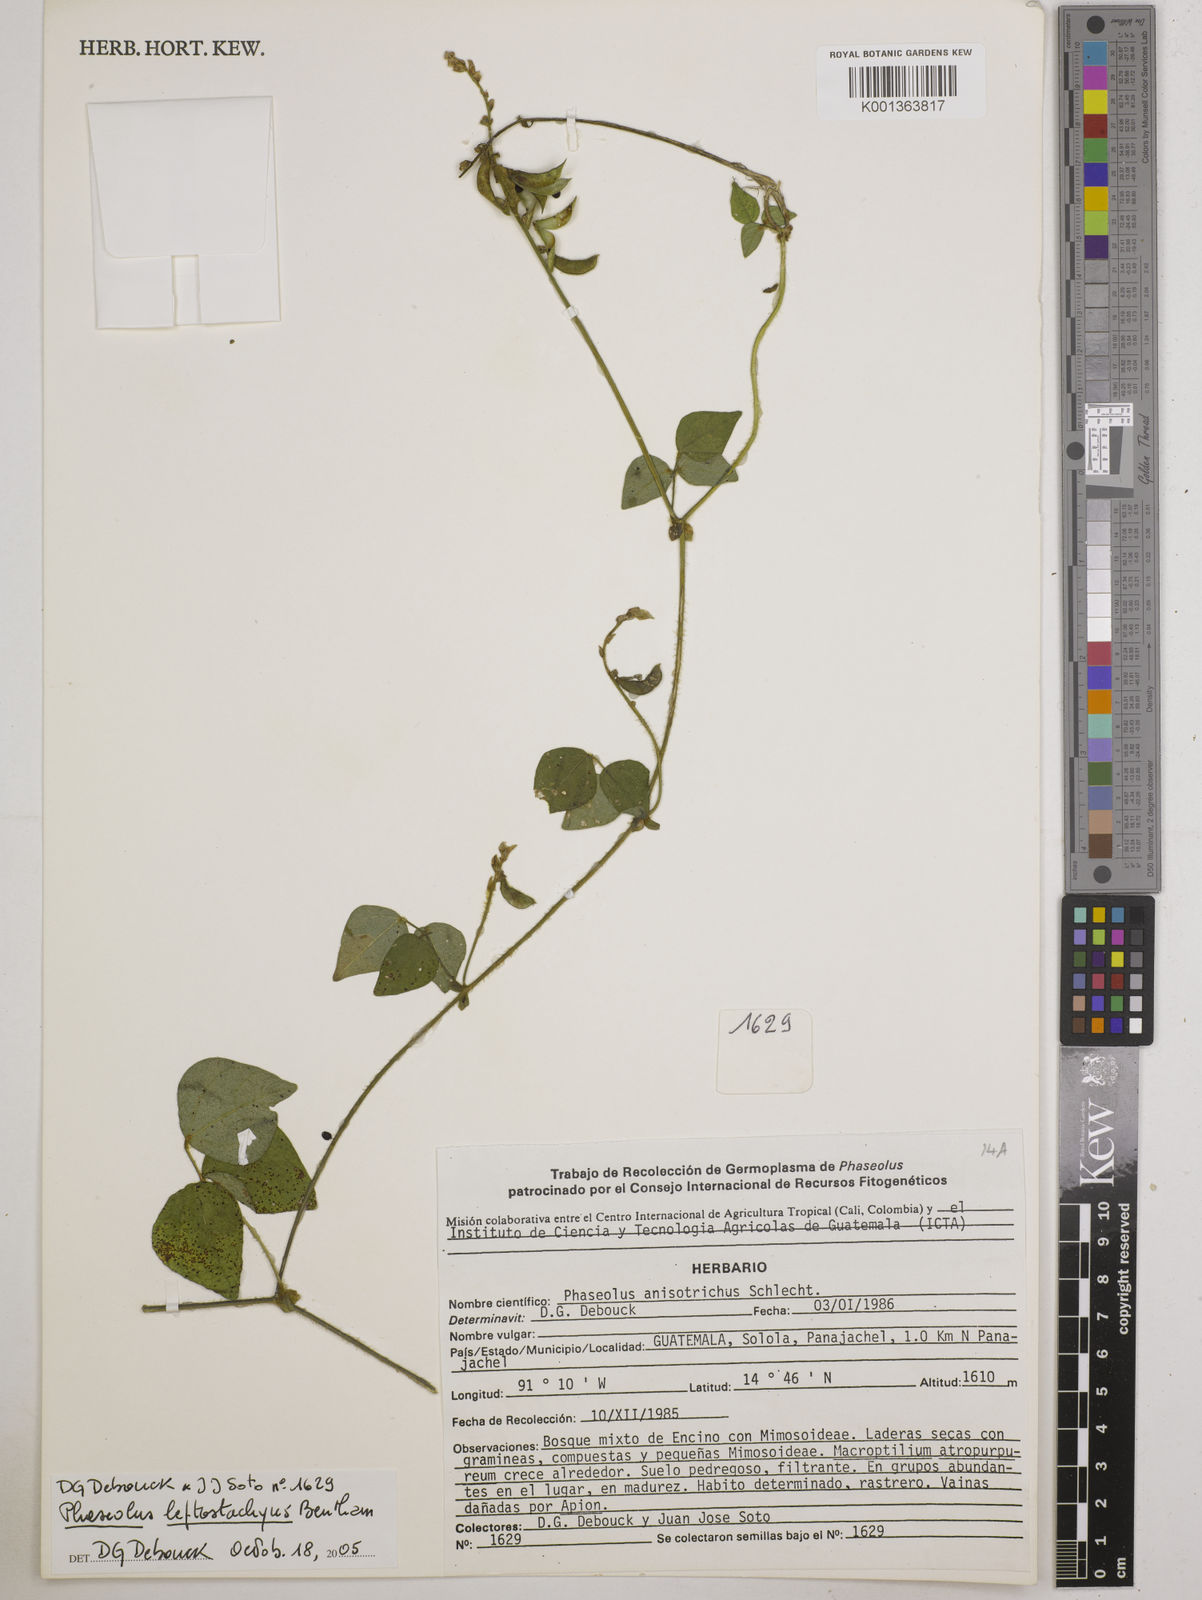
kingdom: Plantae
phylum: Tracheophyta
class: Magnoliopsida
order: Fabales
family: Fabaceae
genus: Phaseolus
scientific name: Phaseolus
